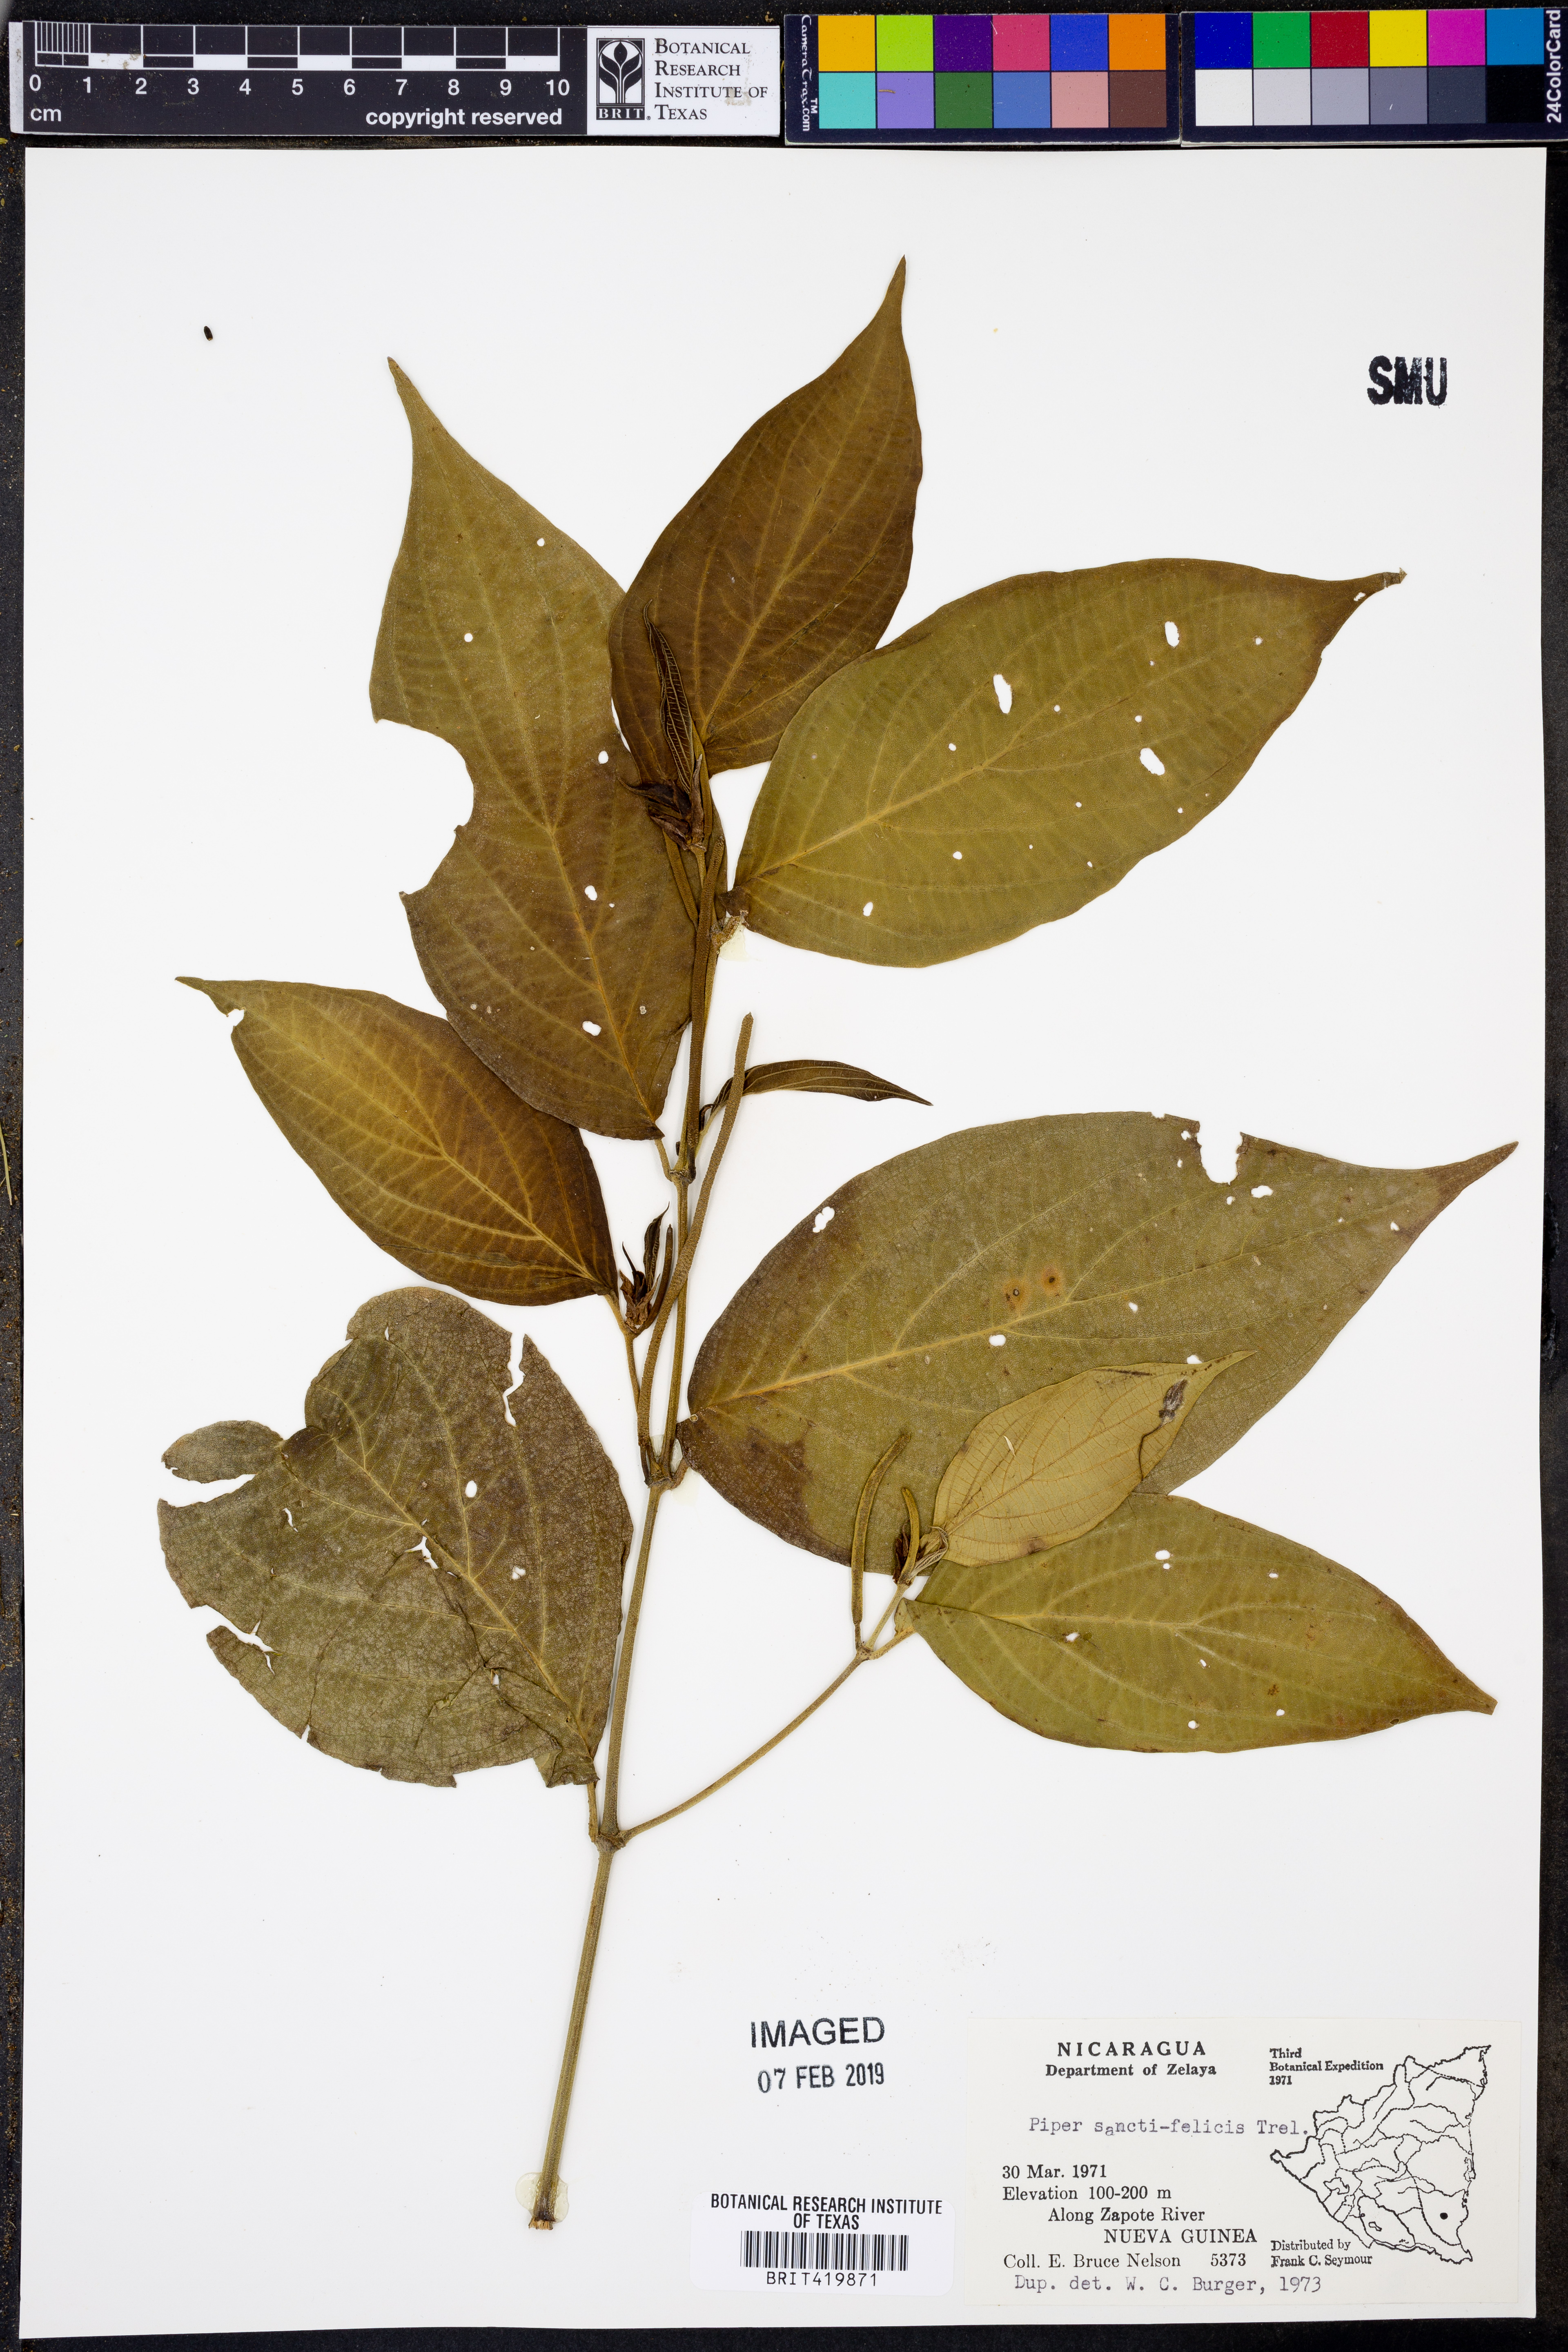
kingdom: Plantae
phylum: Tracheophyta
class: Magnoliopsida
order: Piperales
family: Piperaceae
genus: Piper
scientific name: Piper sancti-felicis
